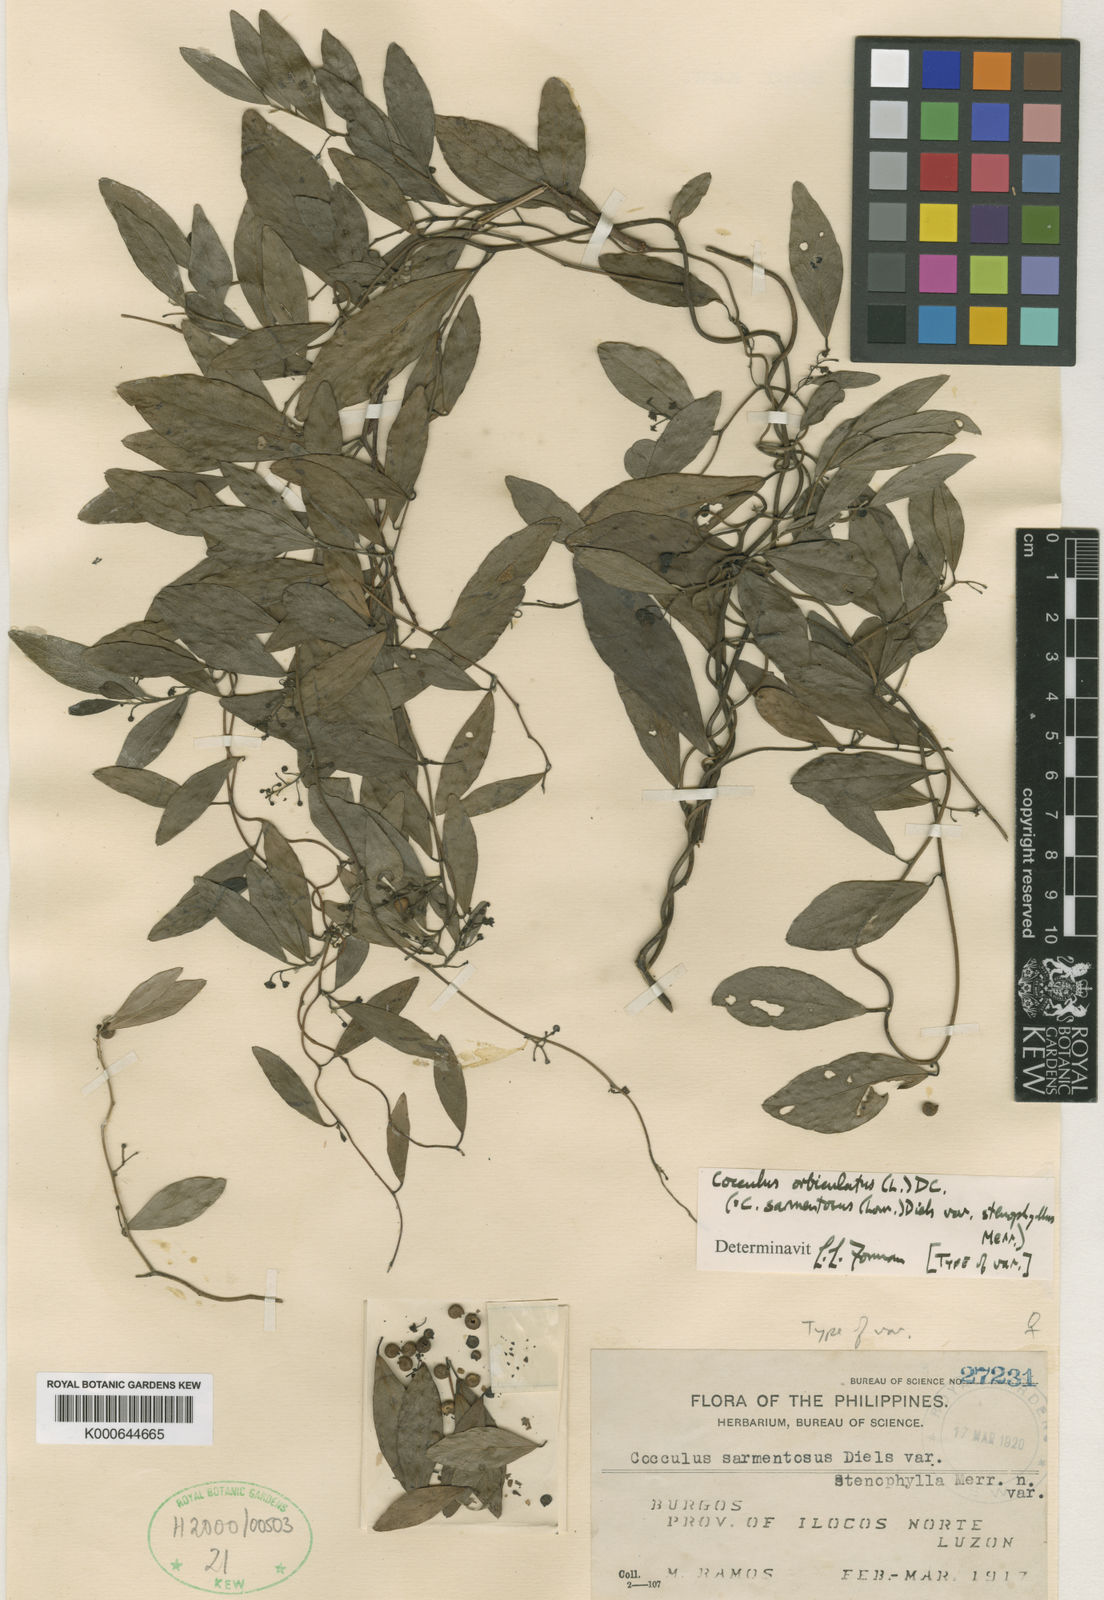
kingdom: Plantae
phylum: Tracheophyta
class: Magnoliopsida
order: Ranunculales
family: Menispermaceae
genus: Cocculus
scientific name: Cocculus orbiculatus
